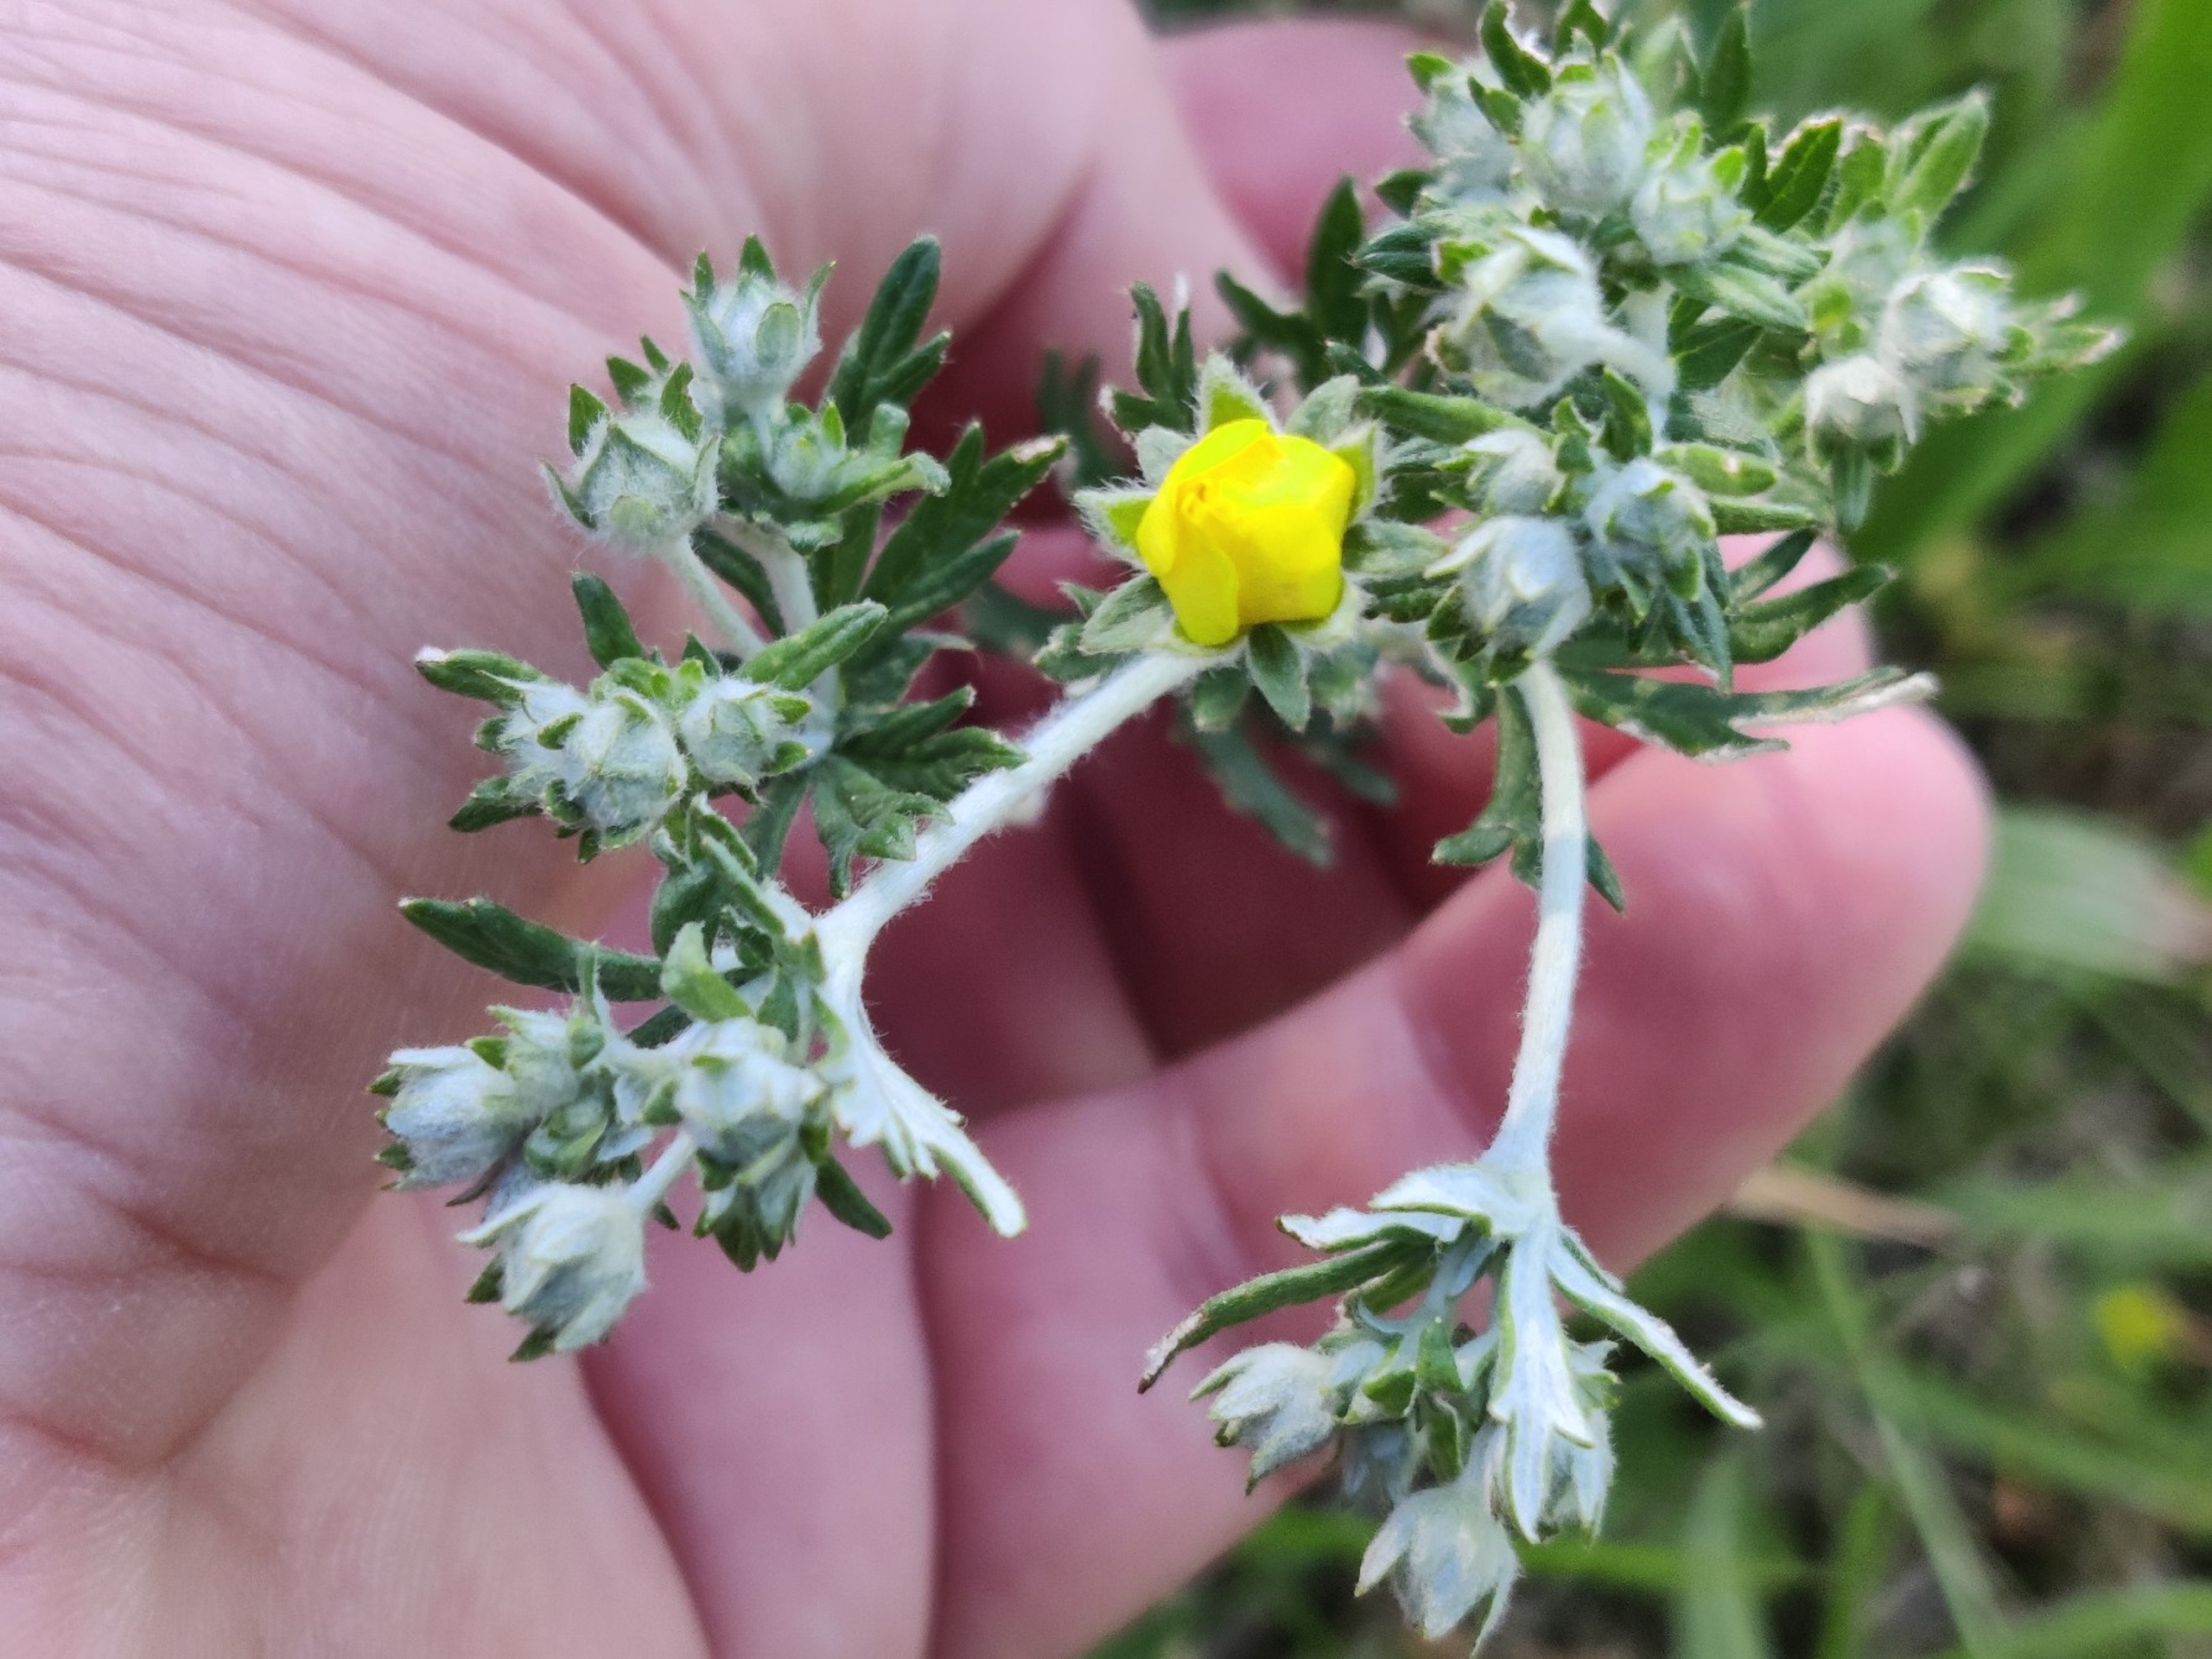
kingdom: Plantae
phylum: Tracheophyta
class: Magnoliopsida
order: Rosales
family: Rosaceae
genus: Potentilla
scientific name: Potentilla argentea
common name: Sølv-potentil
